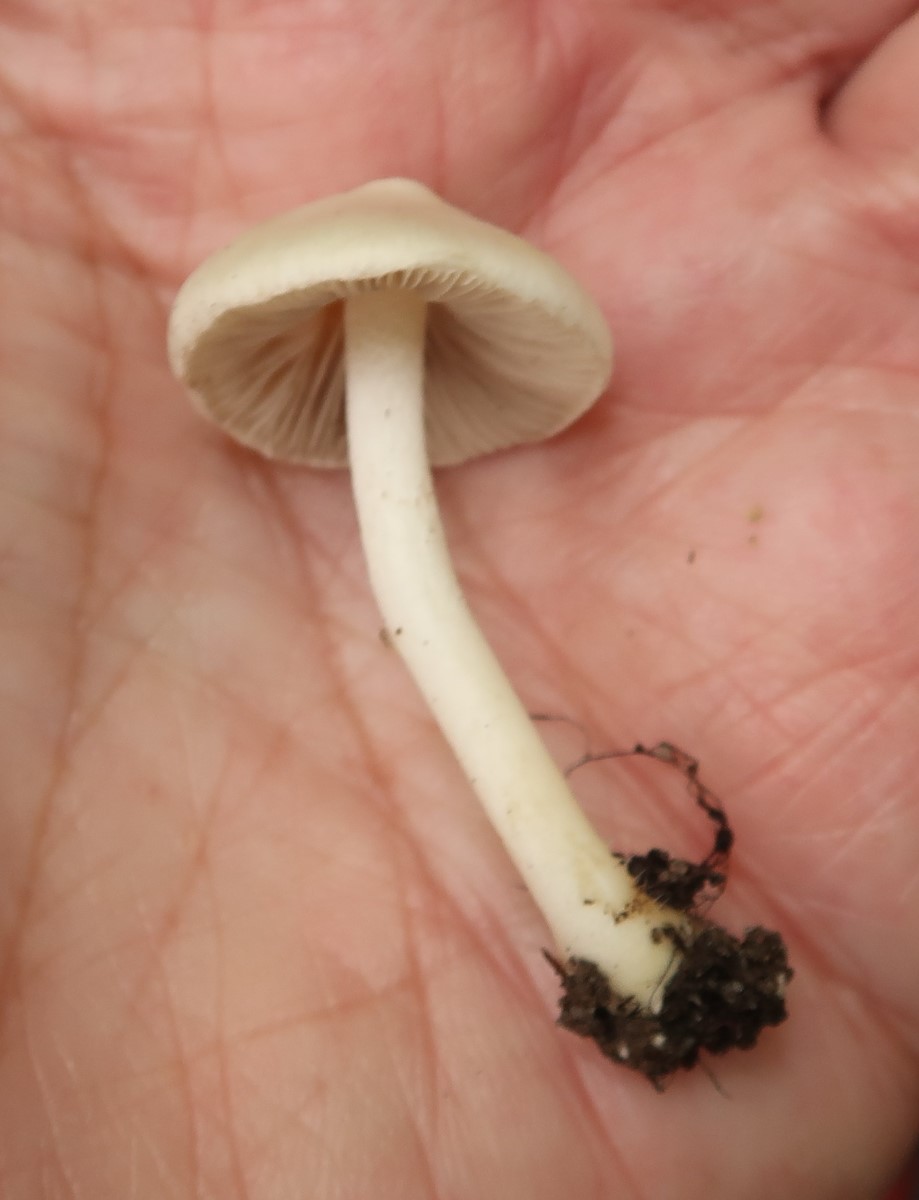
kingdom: Fungi
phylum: Basidiomycota
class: Agaricomycetes
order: Agaricales
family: Inocybaceae
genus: Inocybe
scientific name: Inocybe
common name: almindelig trævlhat
